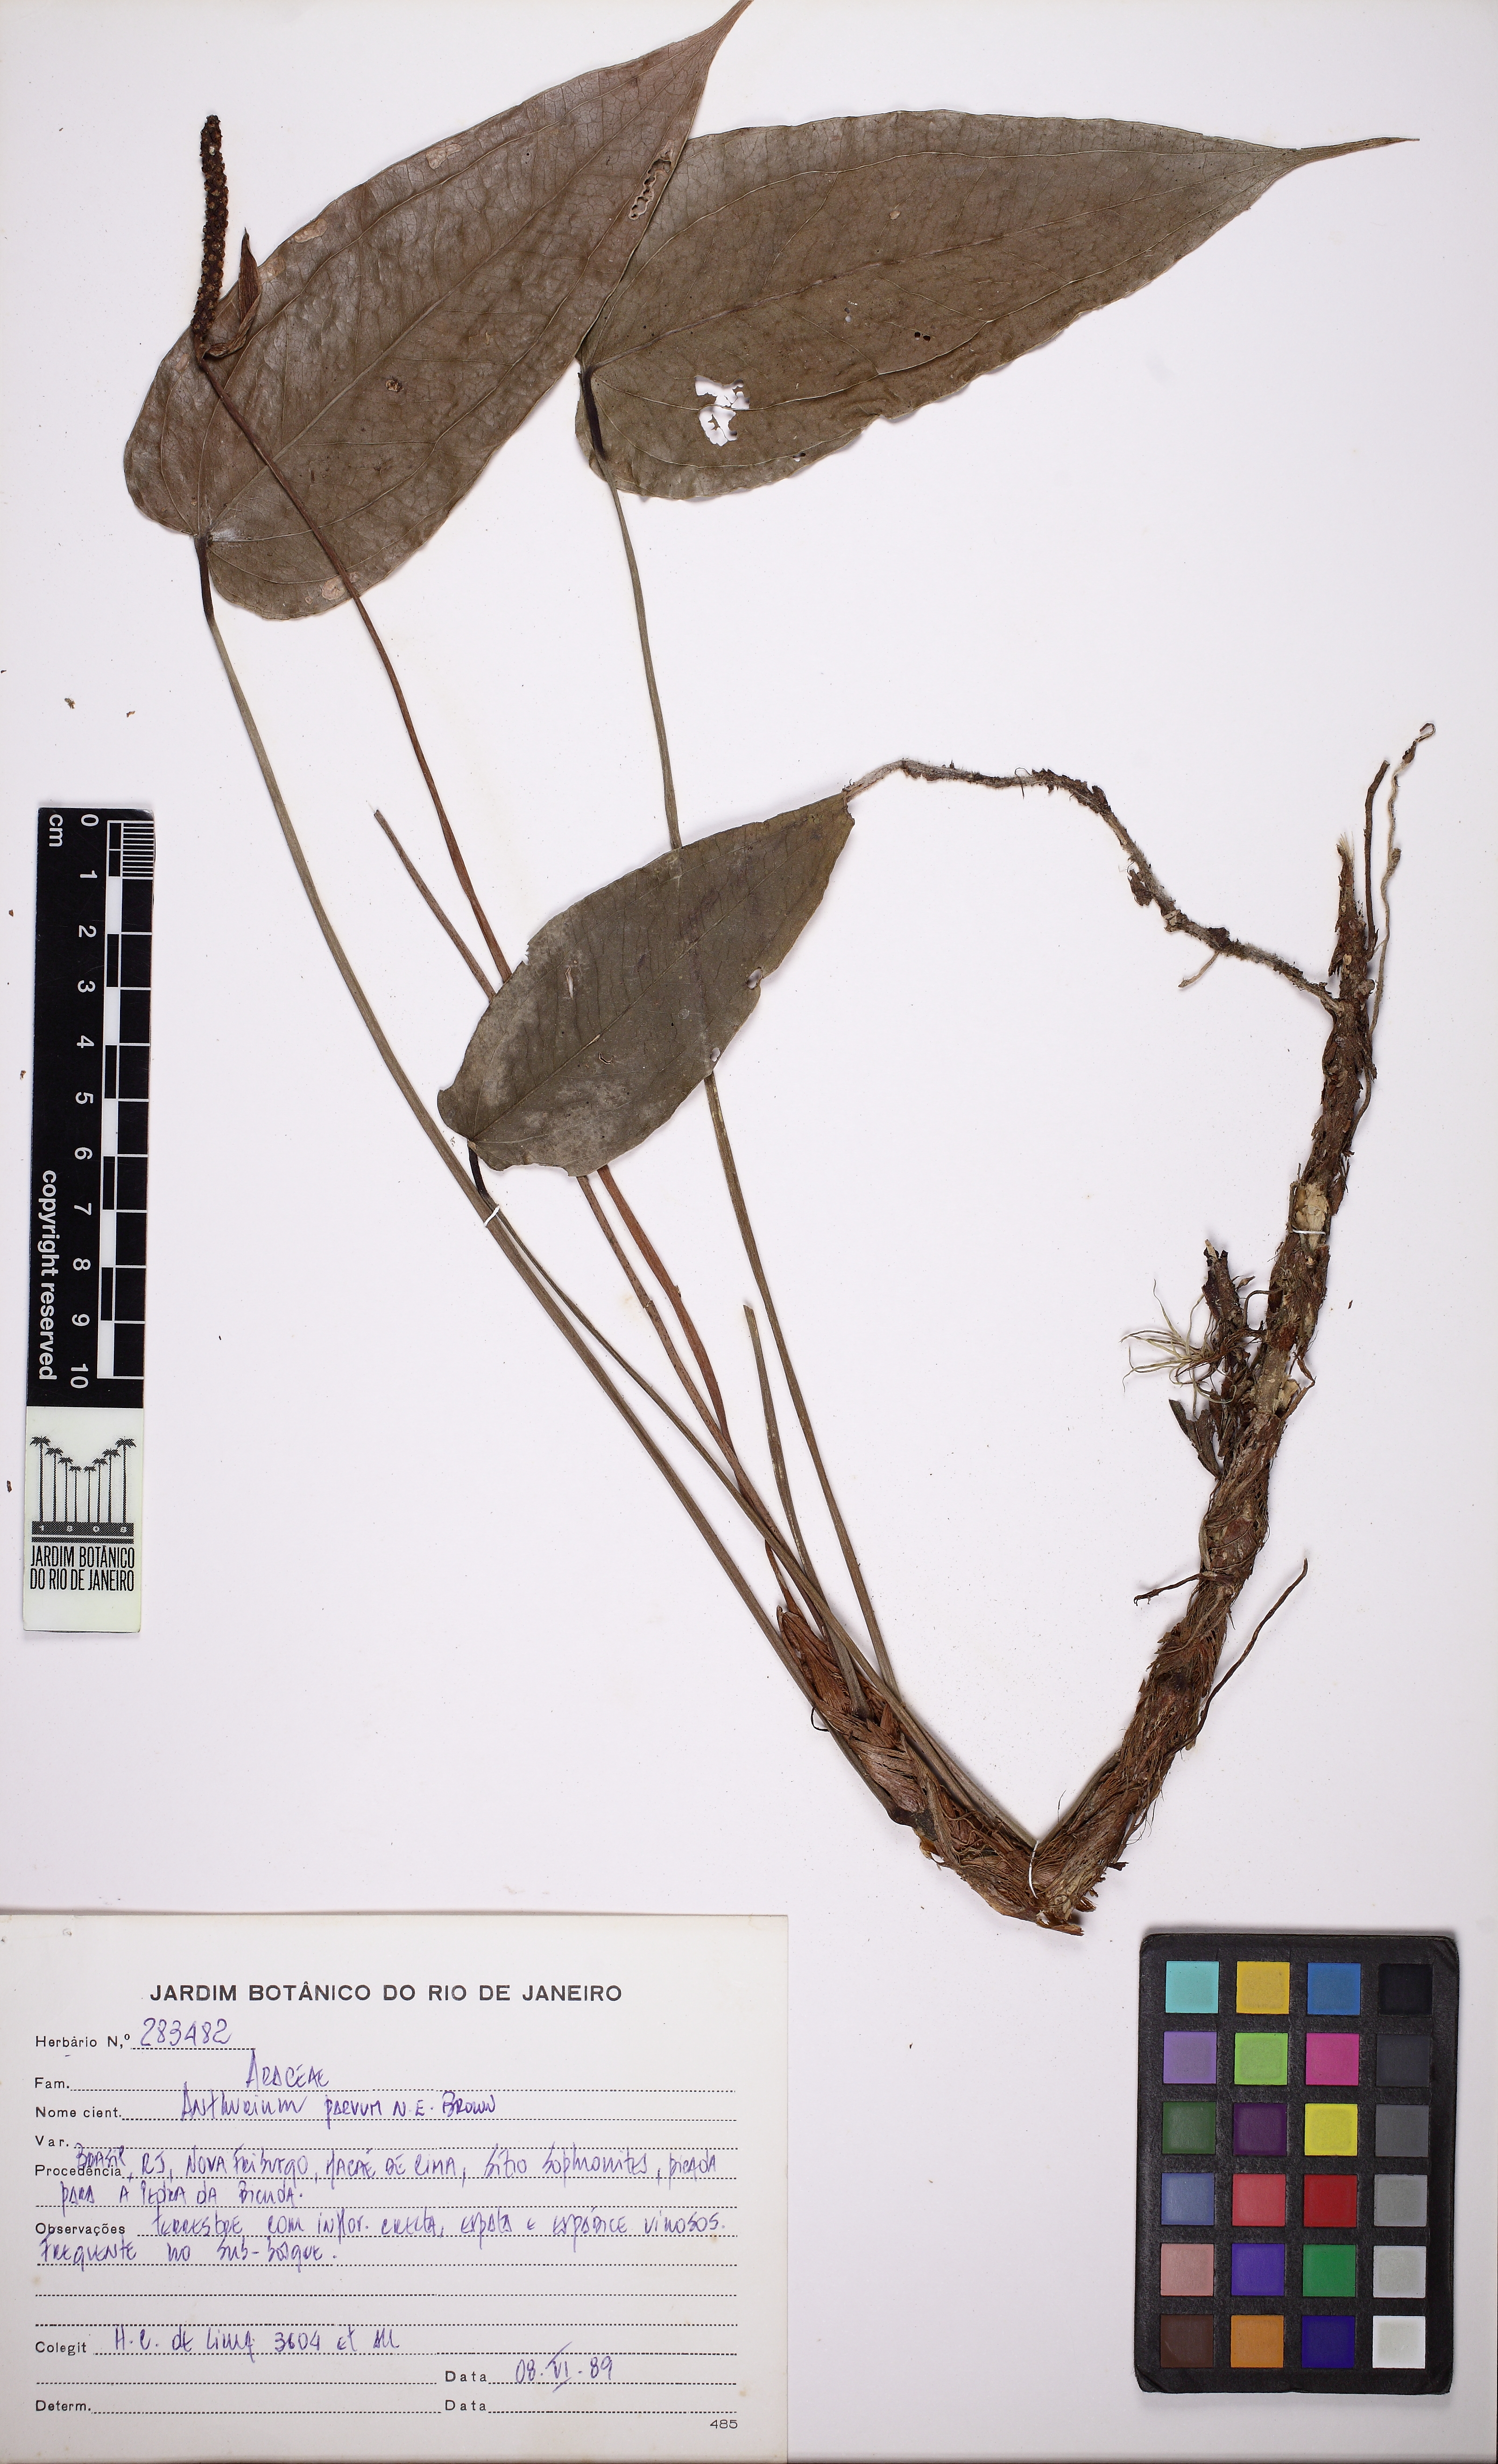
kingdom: Plantae
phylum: Tracheophyta
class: Liliopsida
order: Alismatales
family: Araceae
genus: Anthurium
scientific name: Anthurium parvum
